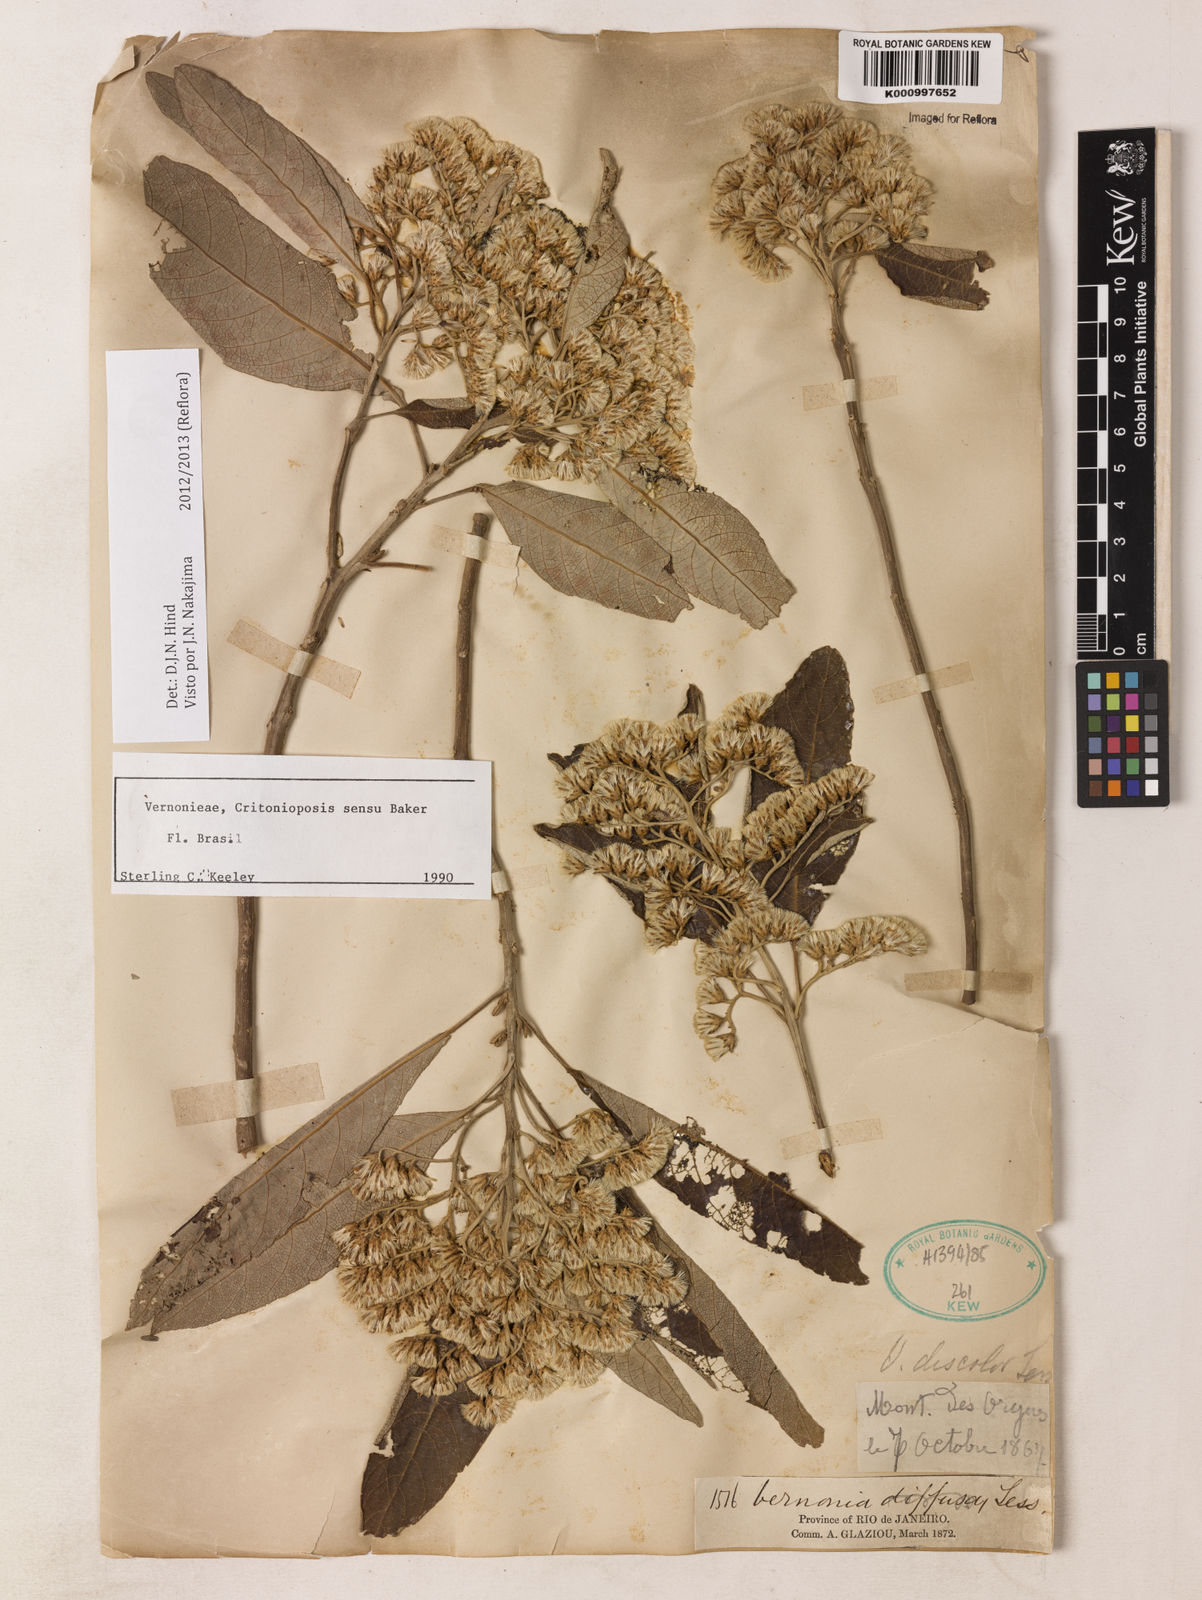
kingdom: Plantae
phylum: Tracheophyta
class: Magnoliopsida
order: Asterales
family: Asteraceae
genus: Vernonanthura
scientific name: Vernonanthura discolor
